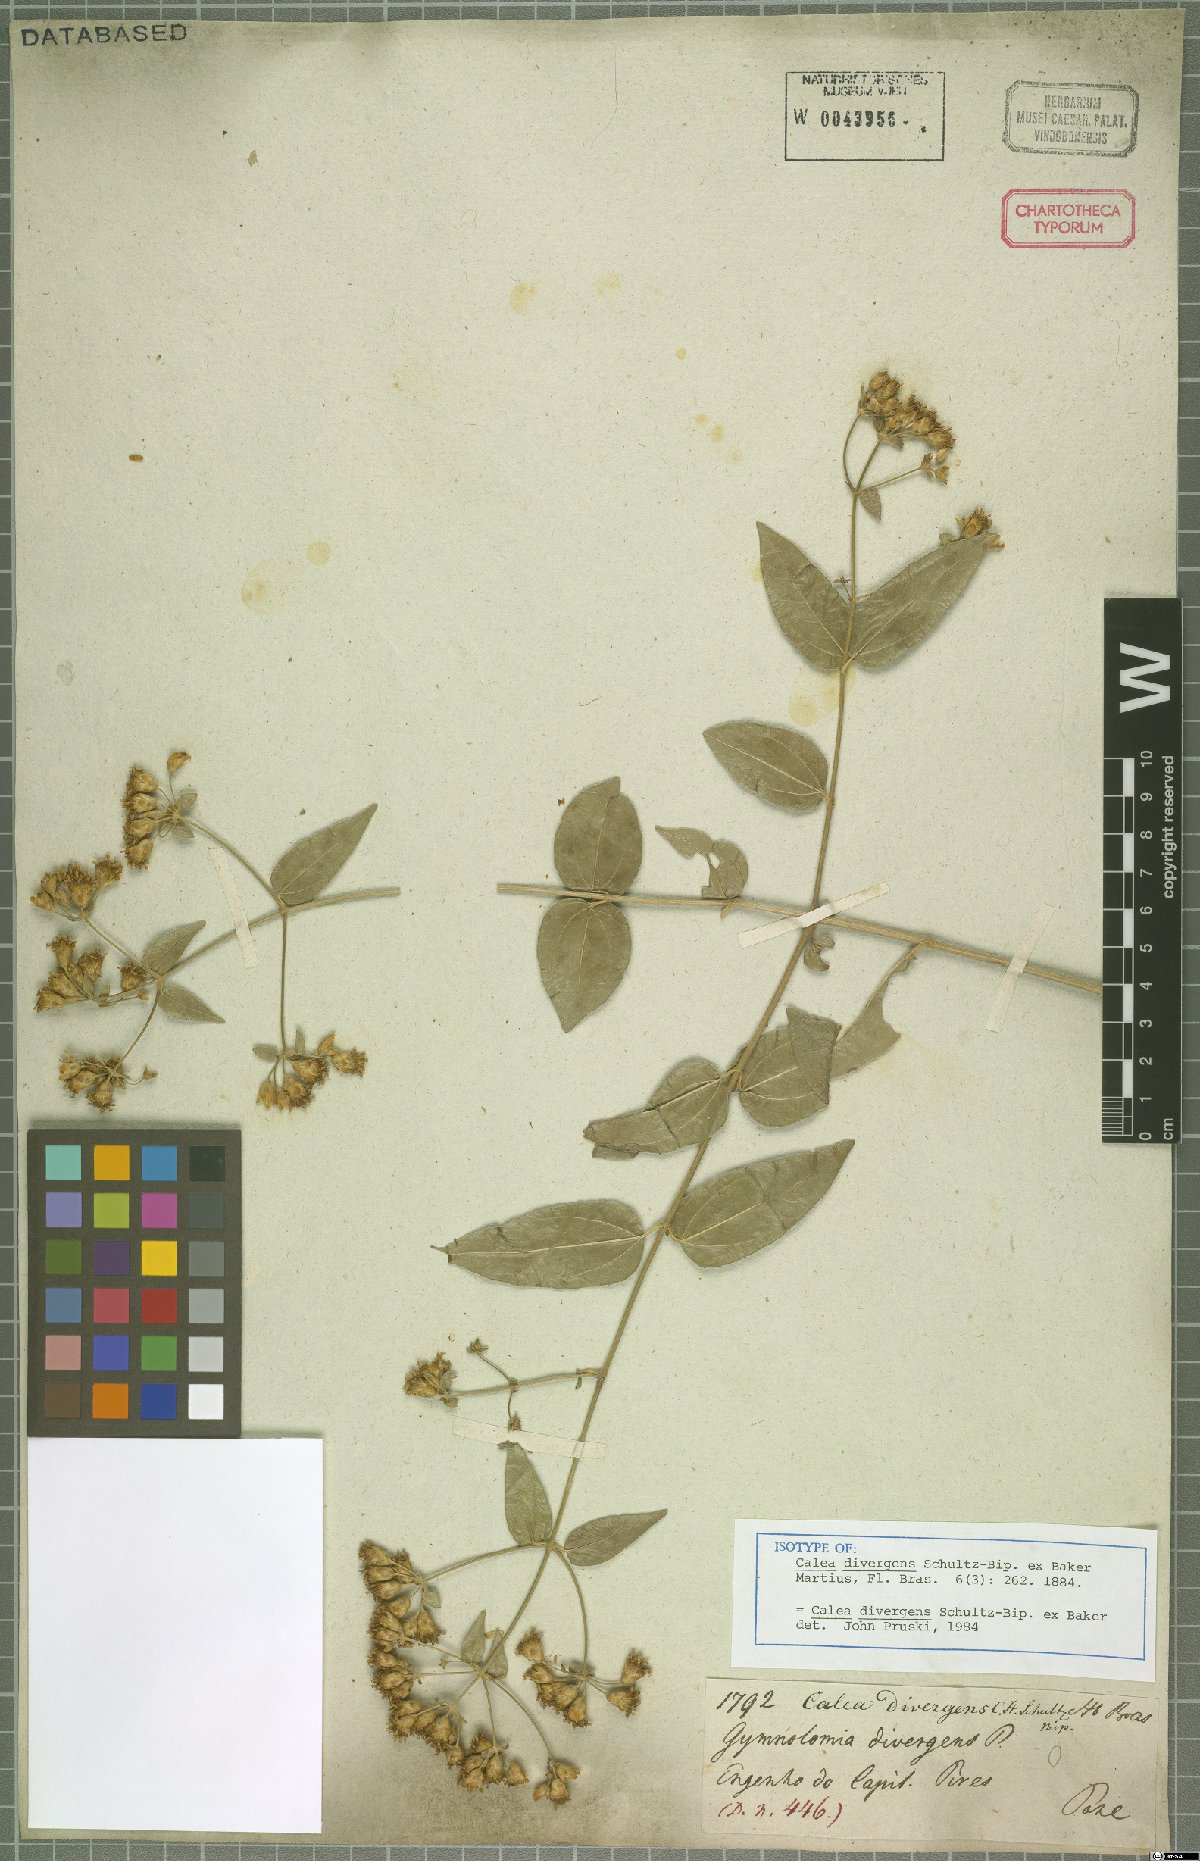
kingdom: Plantae
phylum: Tracheophyta
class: Magnoliopsida
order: Asterales
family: Asteraceae
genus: Calea
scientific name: Calea divergens
